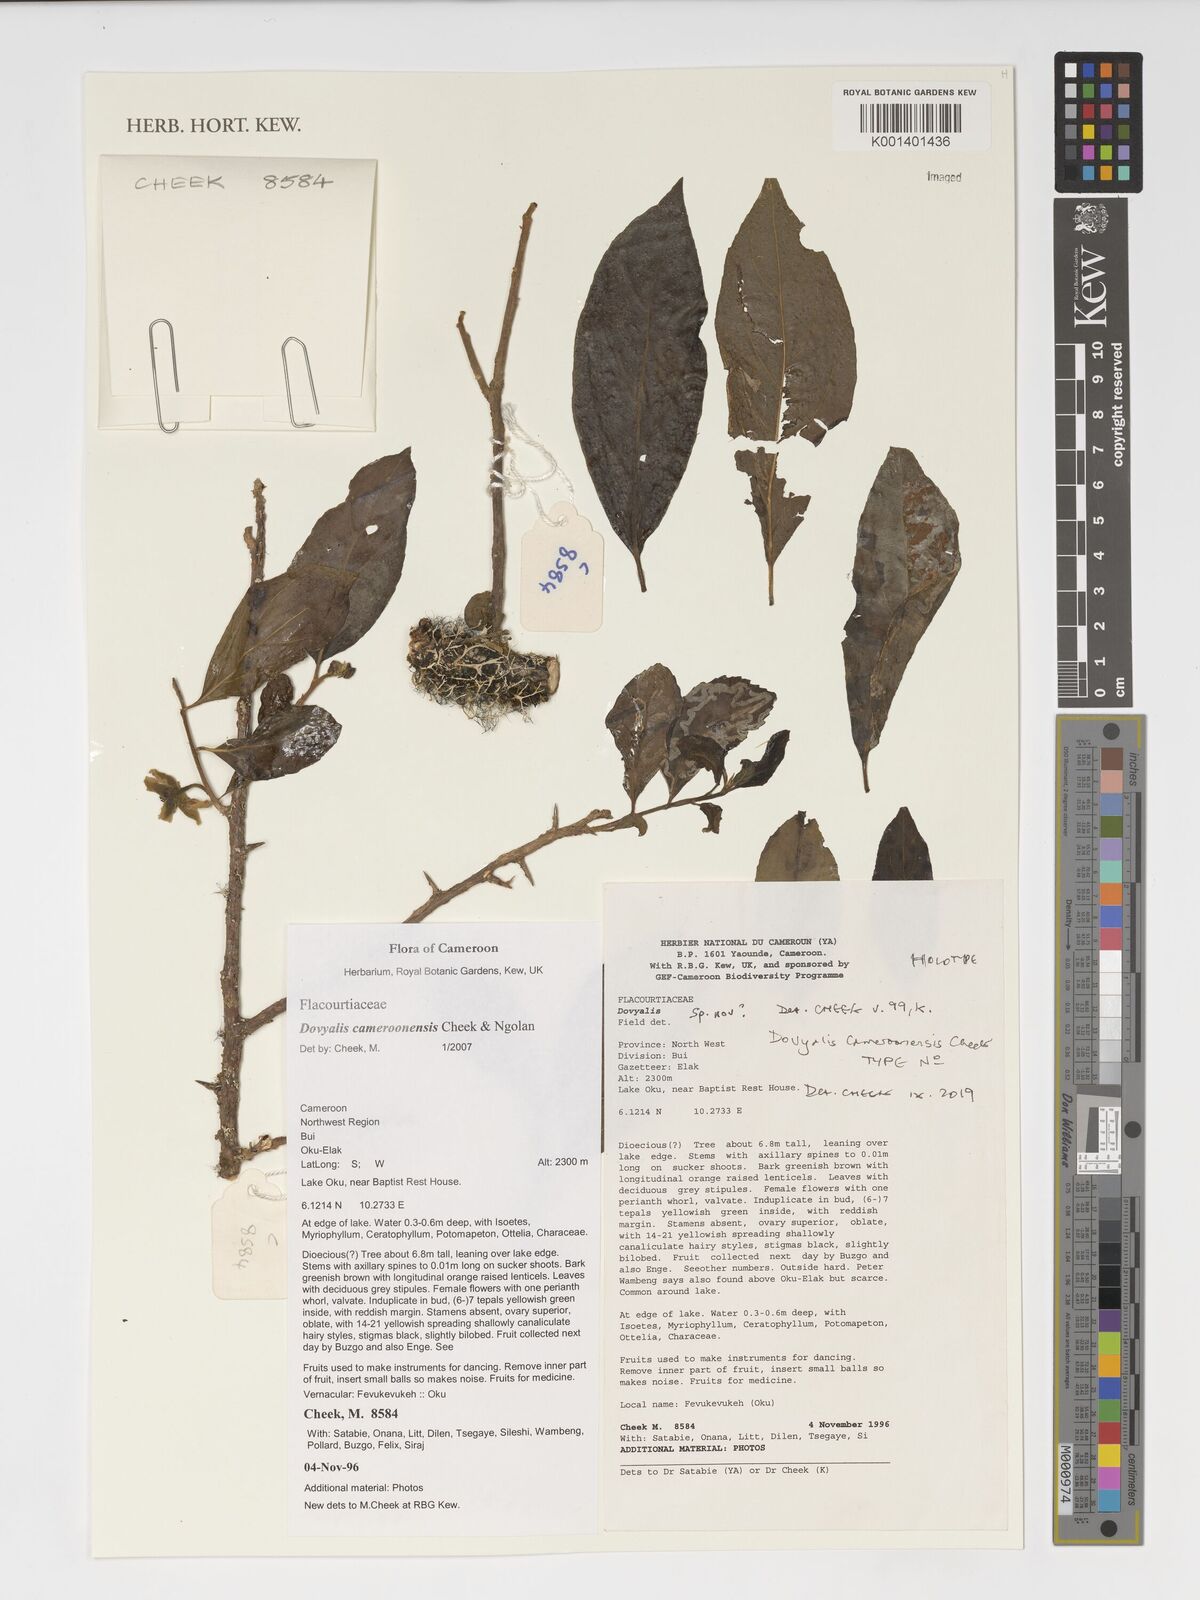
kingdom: Plantae
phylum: Tracheophyta
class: Magnoliopsida
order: Malpighiales
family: Salicaceae
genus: Dovyalis
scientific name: Dovyalis cameroonensis
